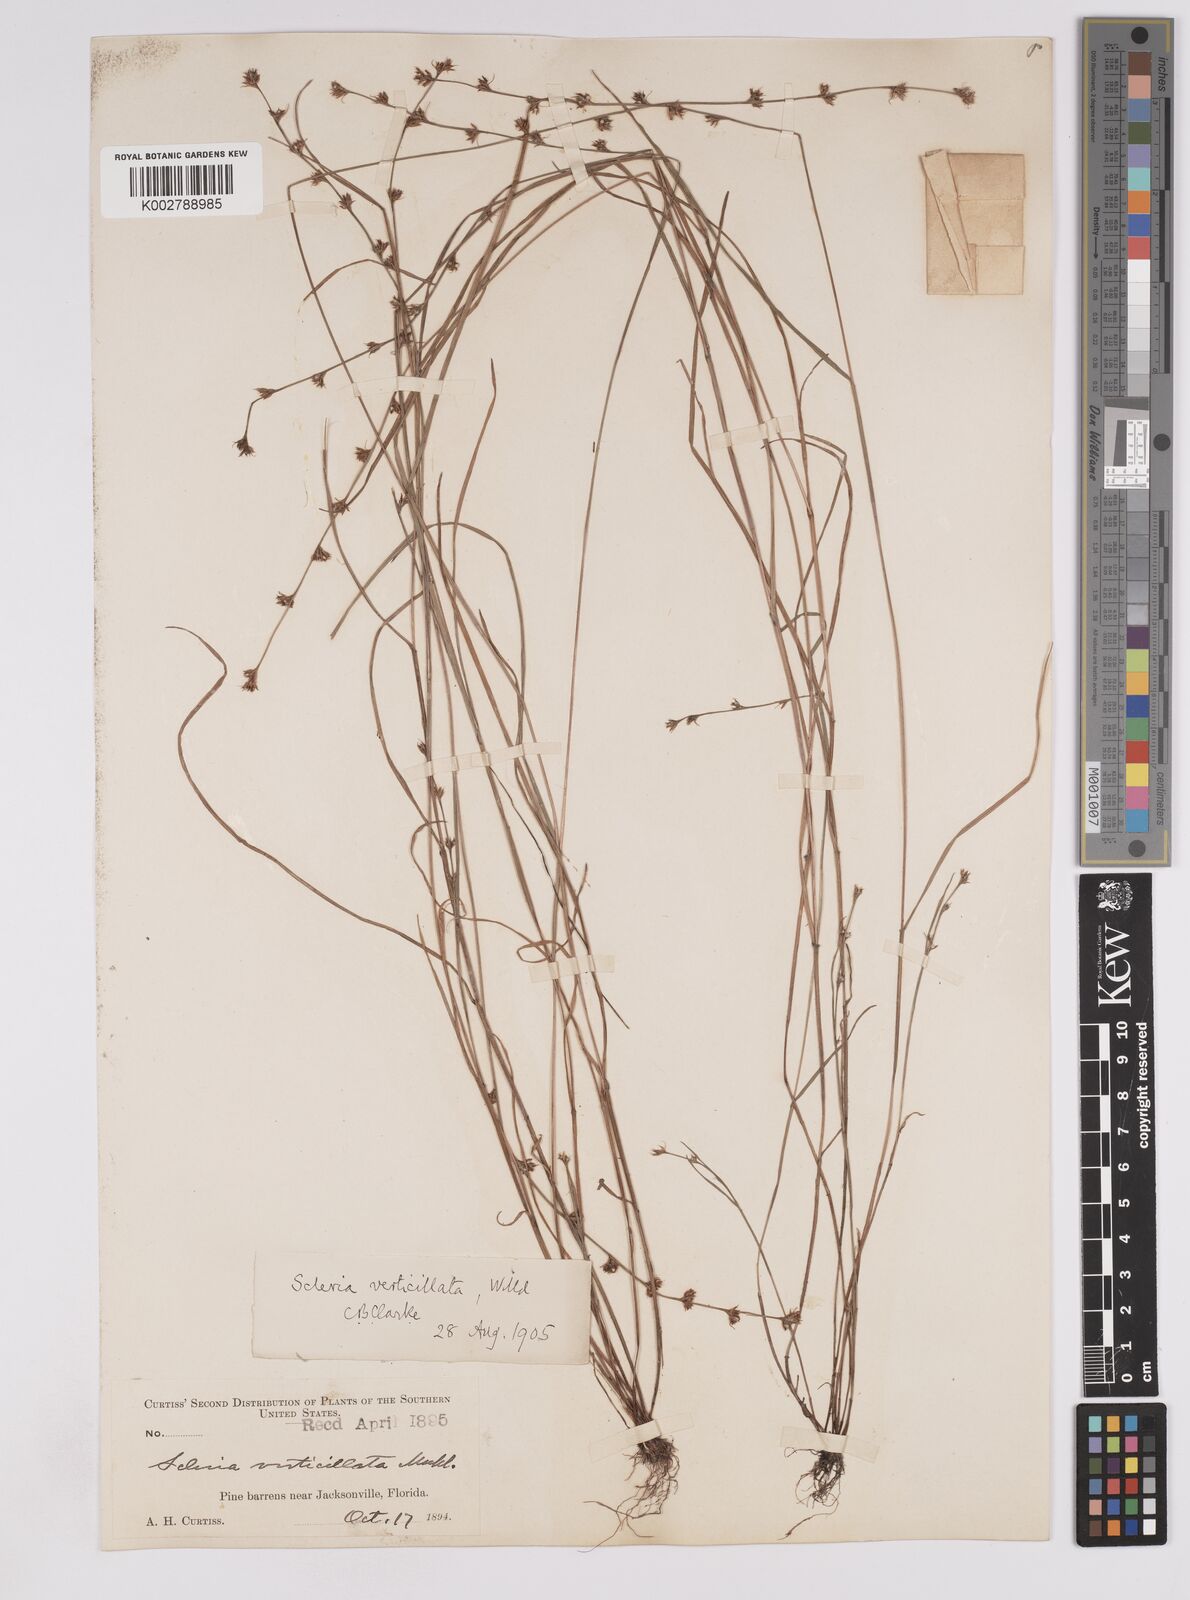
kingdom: Plantae
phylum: Tracheophyta
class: Liliopsida
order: Poales
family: Cyperaceae
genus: Scleria
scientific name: Scleria verticillata
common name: Low nutrush
